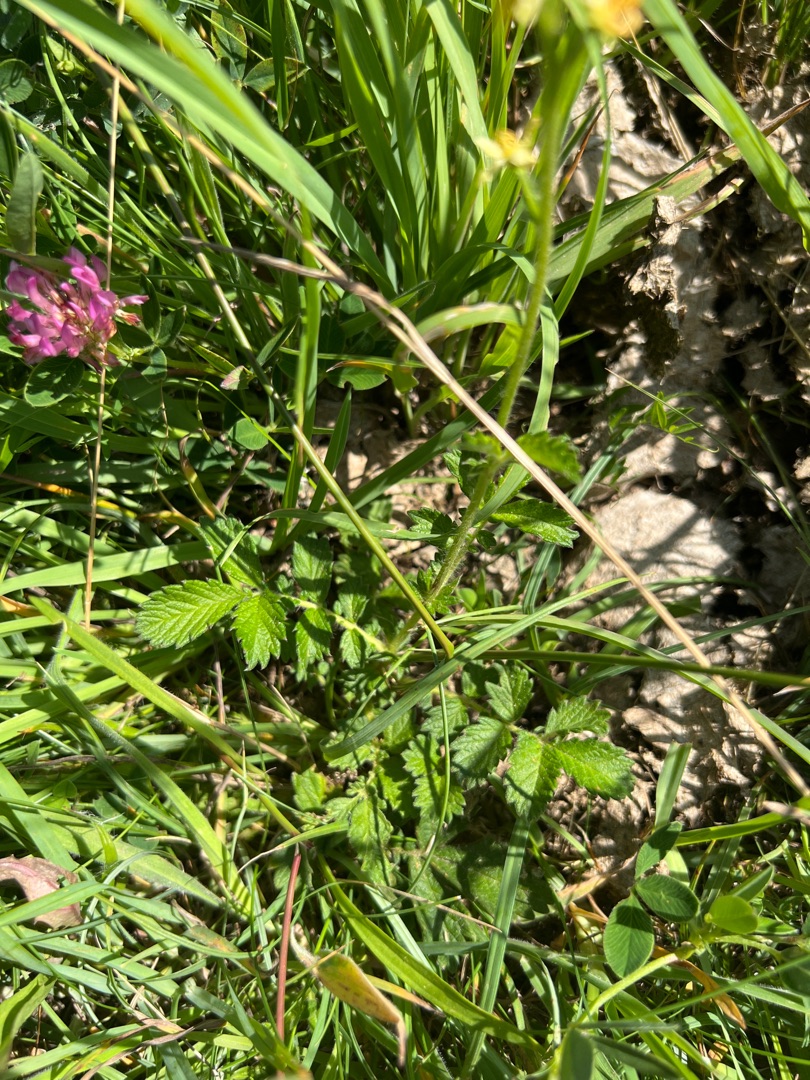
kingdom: Plantae
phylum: Tracheophyta
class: Magnoliopsida
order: Rosales
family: Rosaceae
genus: Agrimonia
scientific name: Agrimonia eupatoria
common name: Almindelig agermåne
